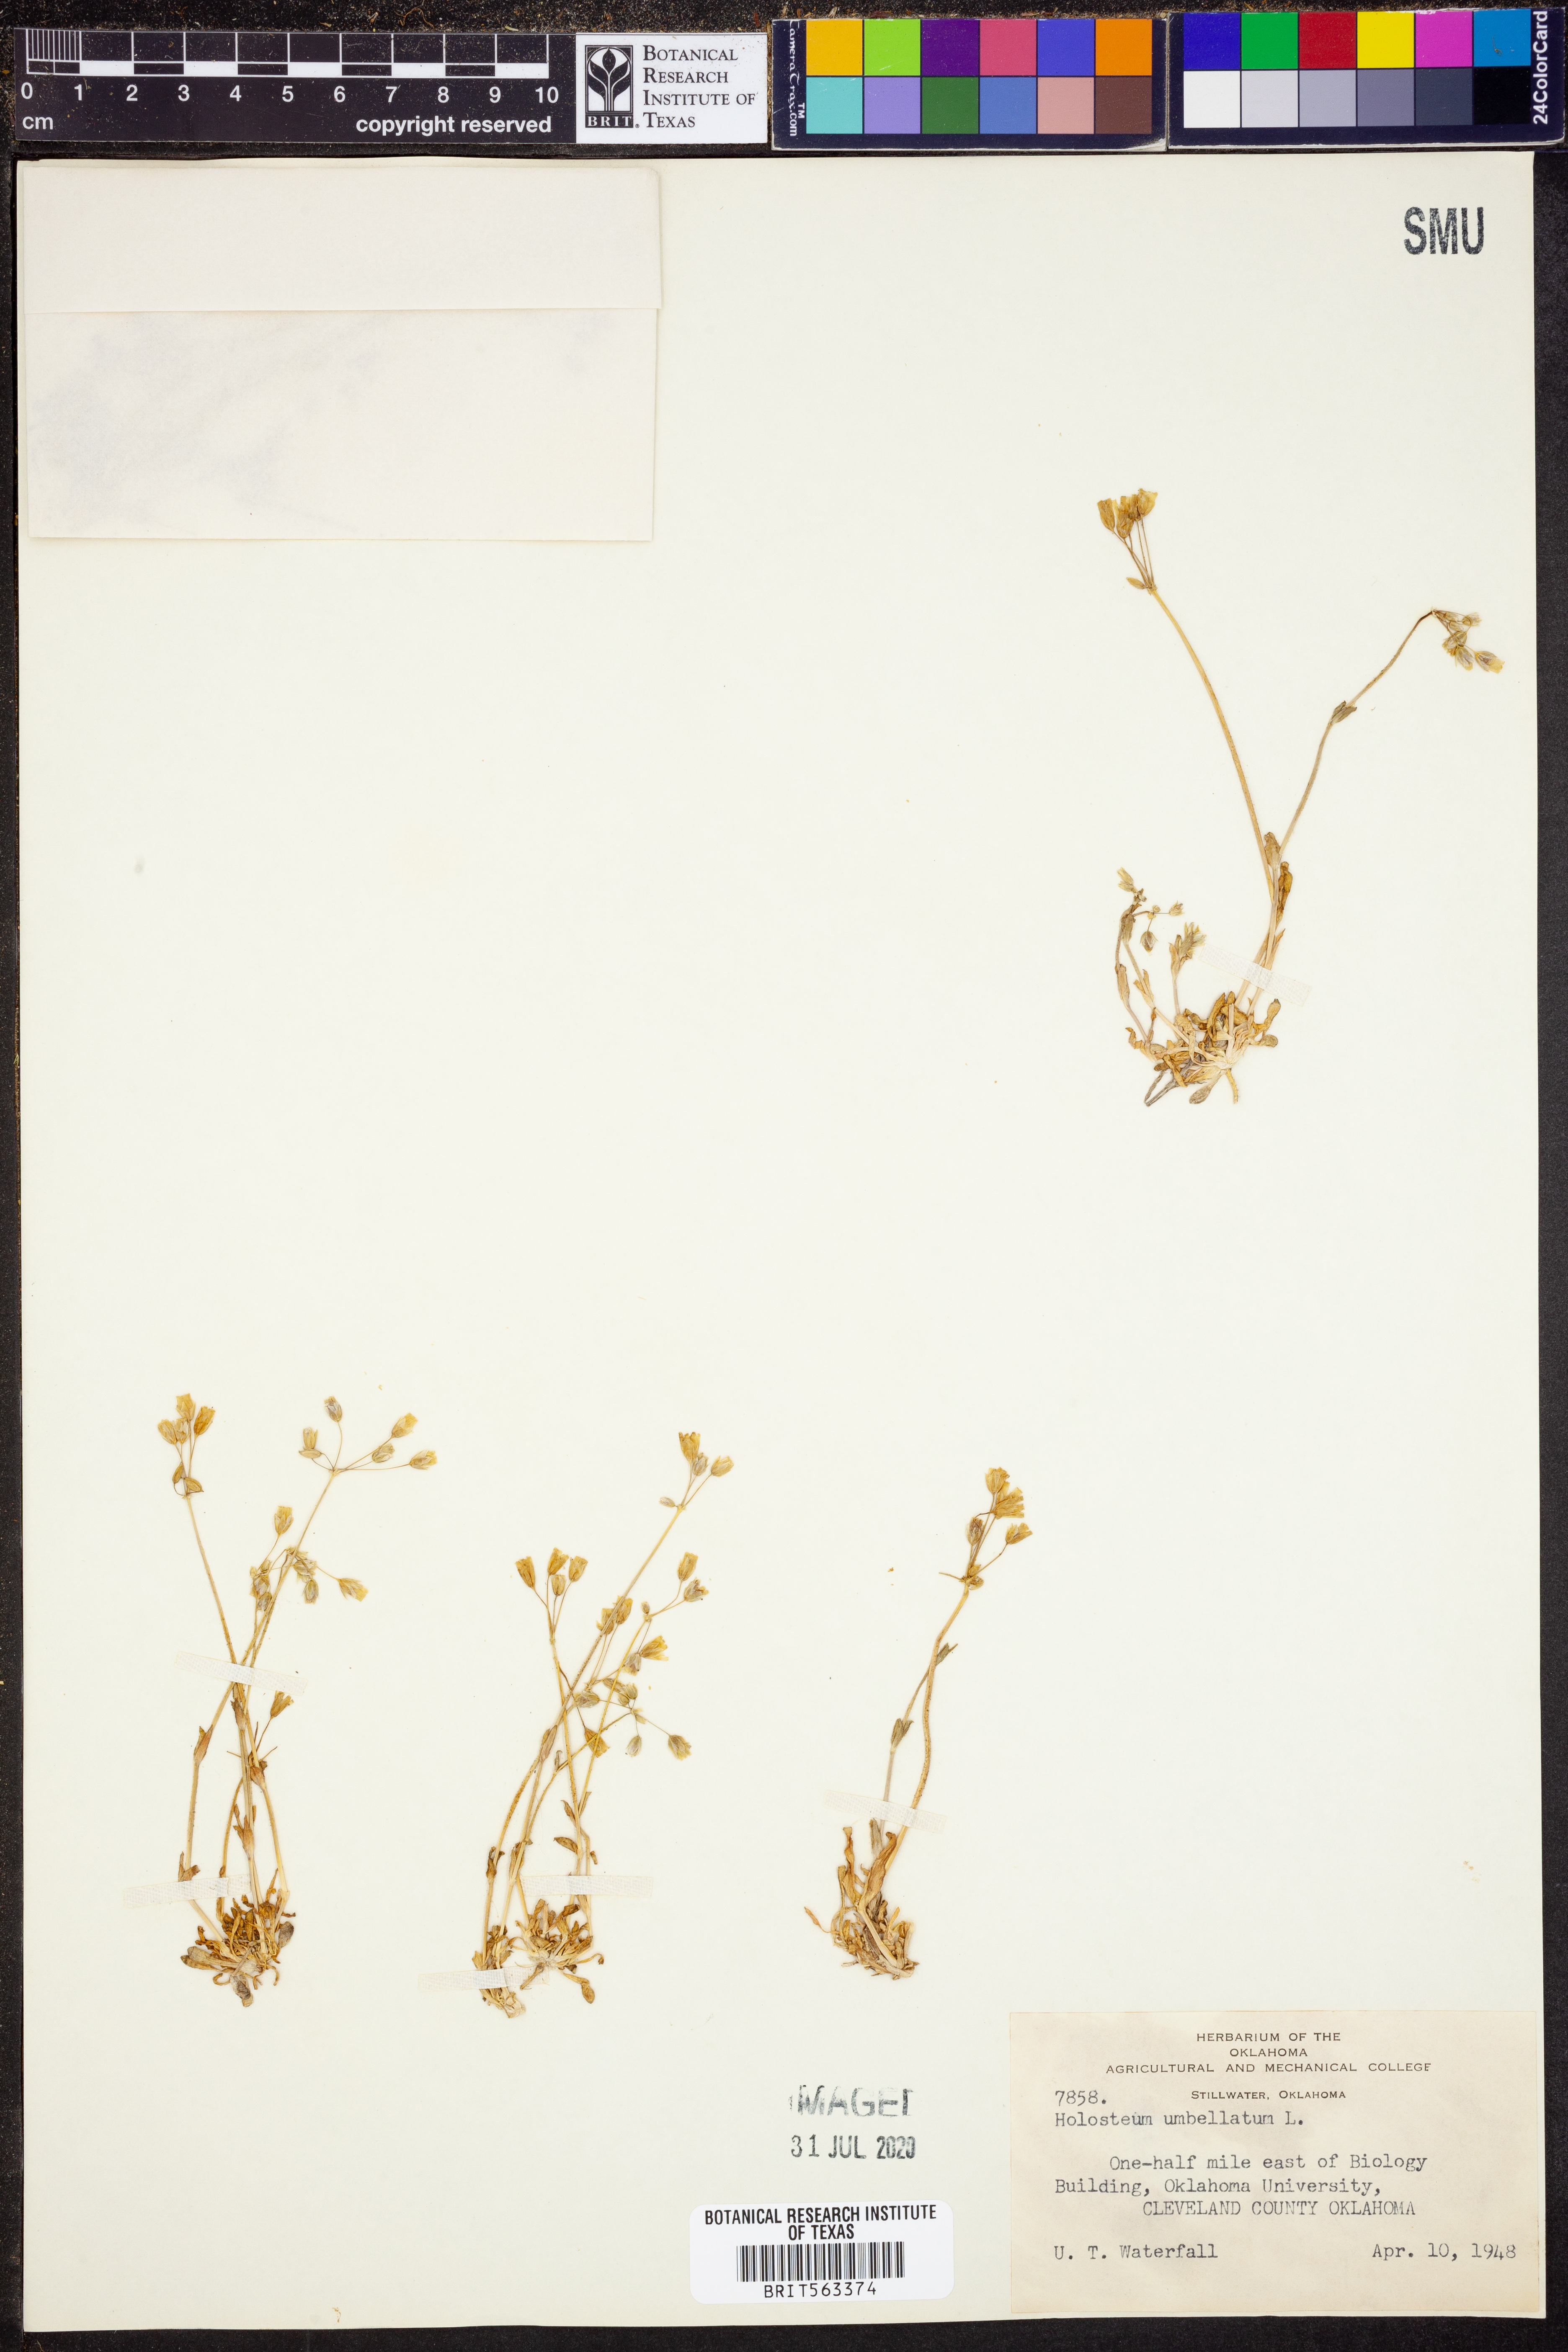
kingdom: Plantae
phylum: Tracheophyta
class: Magnoliopsida
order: Caryophyllales
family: Caryophyllaceae
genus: Holosteum
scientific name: Holosteum umbellatum
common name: Jagged chickweed
